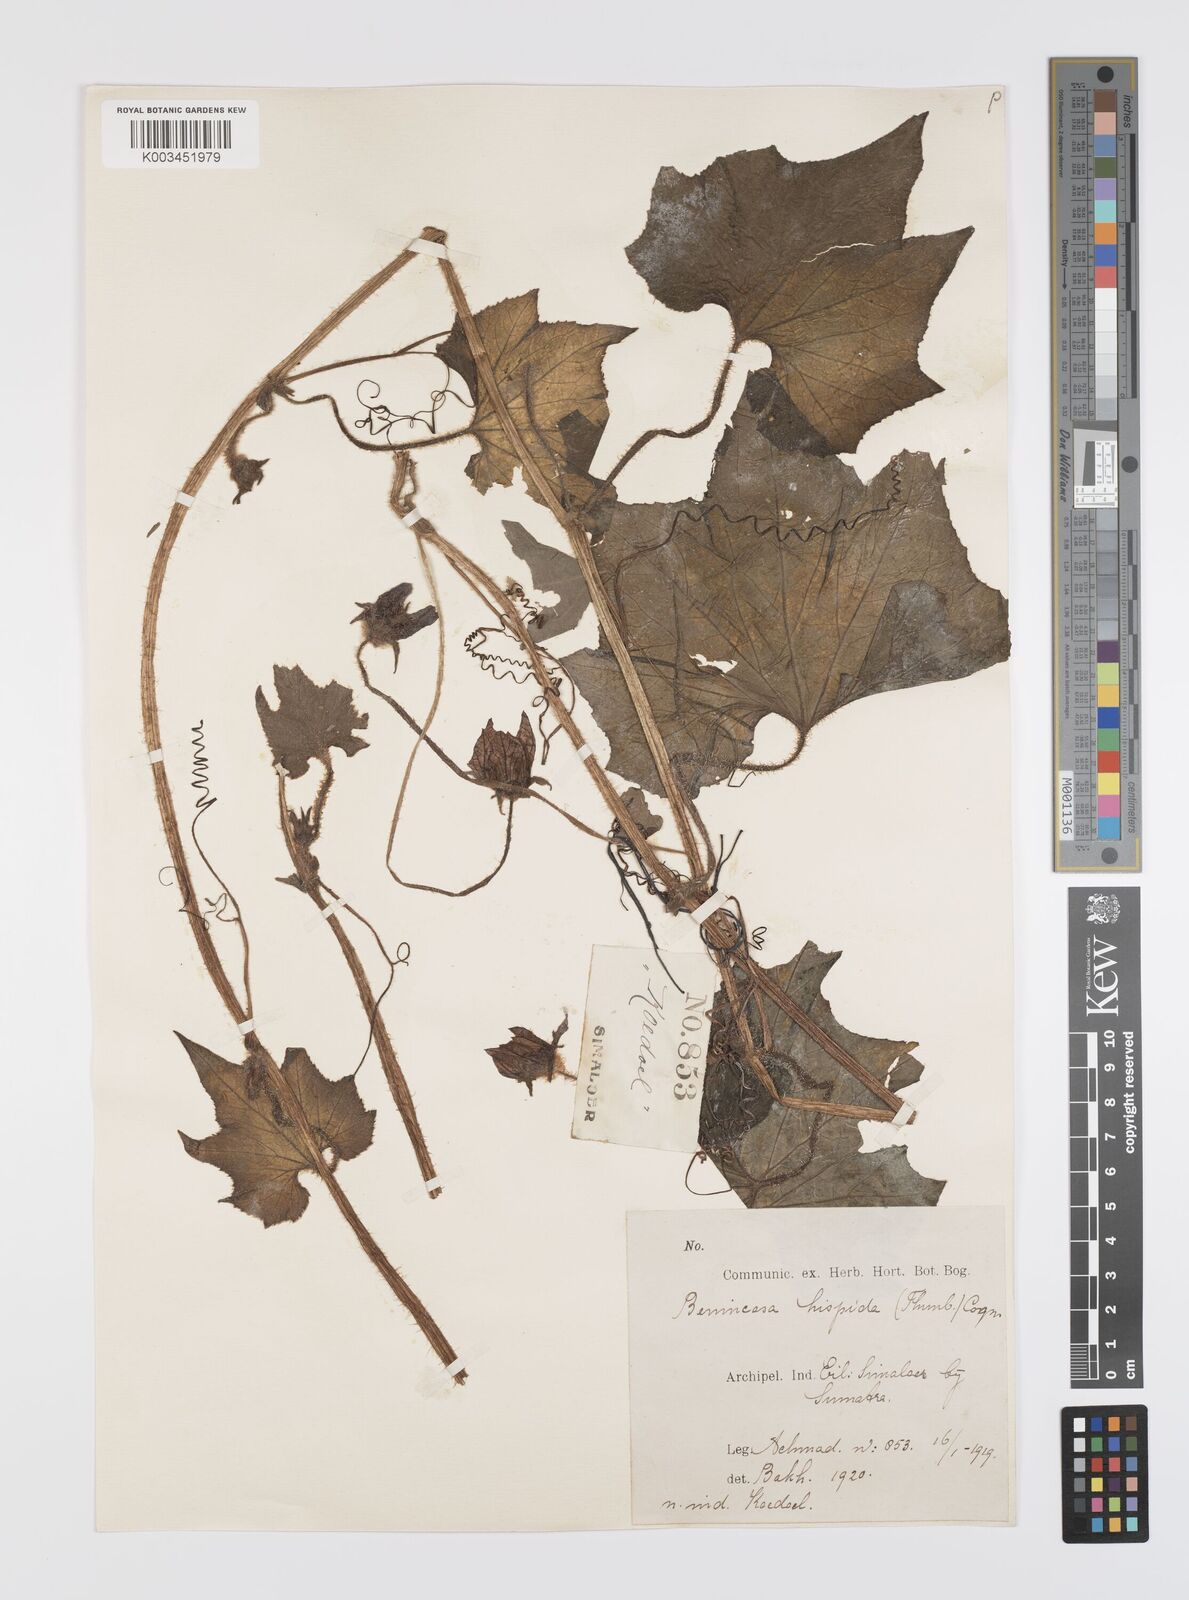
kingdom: Plantae
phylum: Tracheophyta
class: Magnoliopsida
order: Cucurbitales
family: Cucurbitaceae
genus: Benincasa
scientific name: Benincasa hispida
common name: Chinese-watermelon
